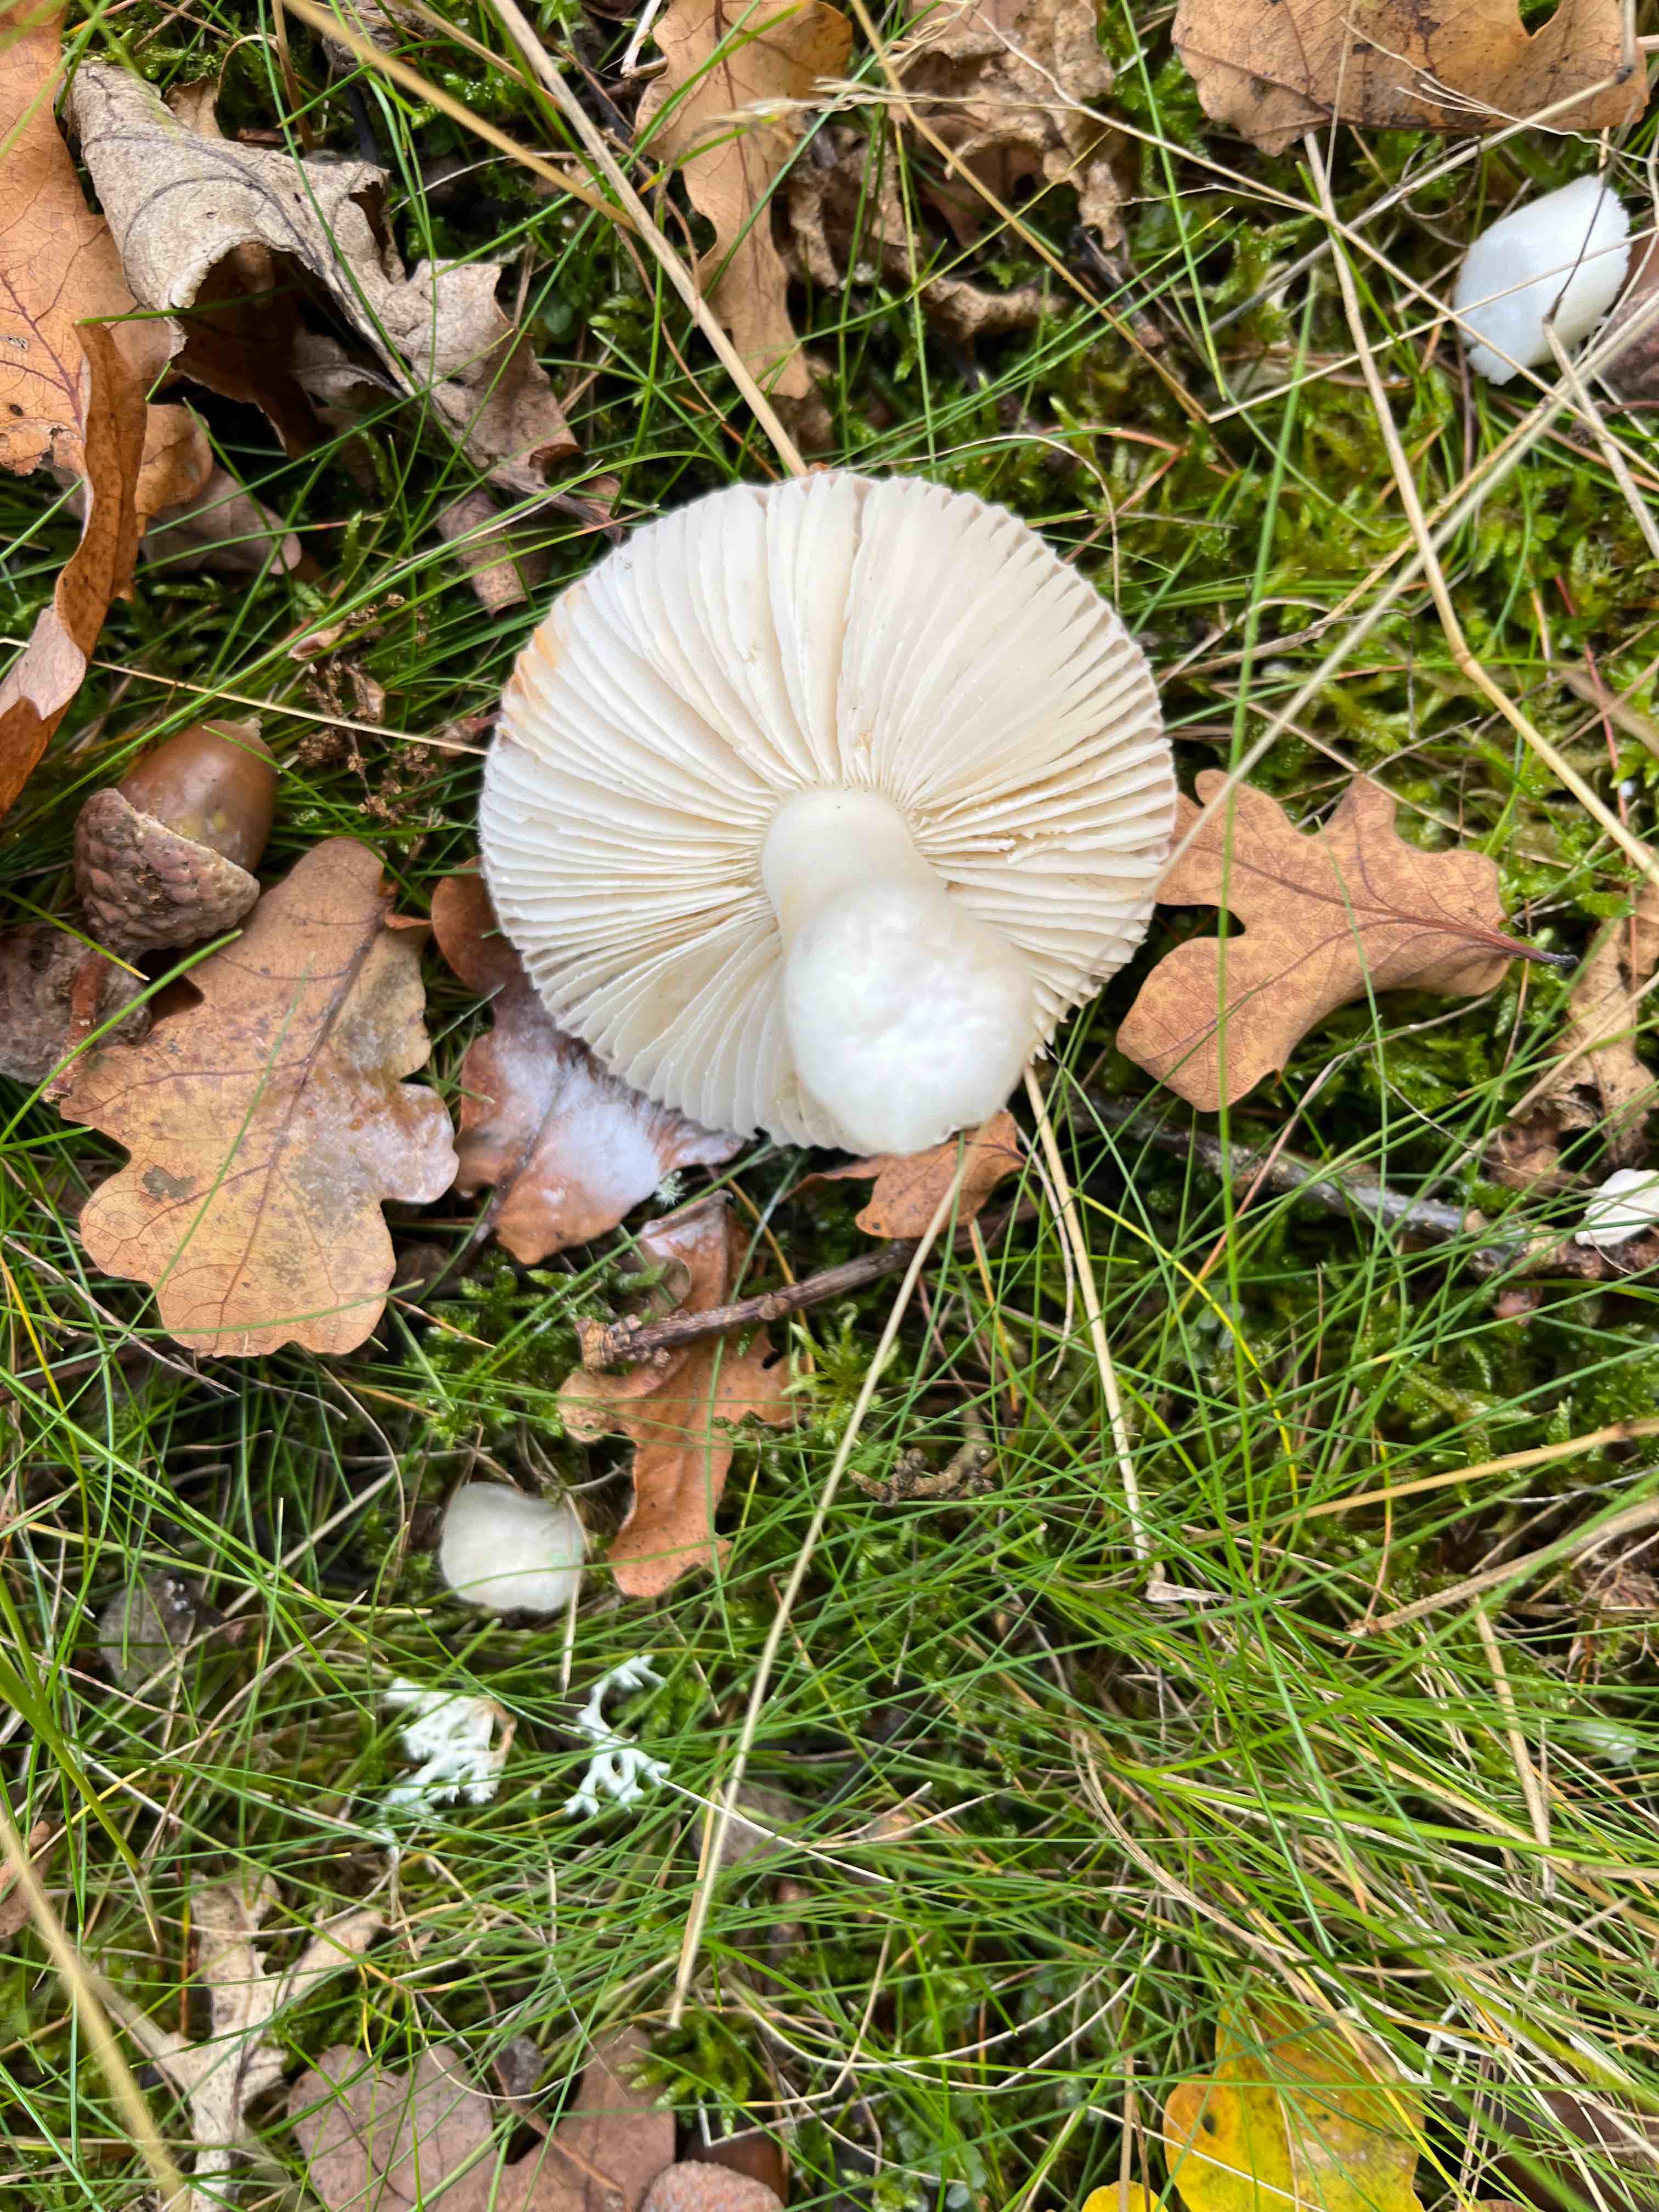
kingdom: Fungi
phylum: Basidiomycota
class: Agaricomycetes
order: Russulales
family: Russulaceae
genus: Russula
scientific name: Russula
